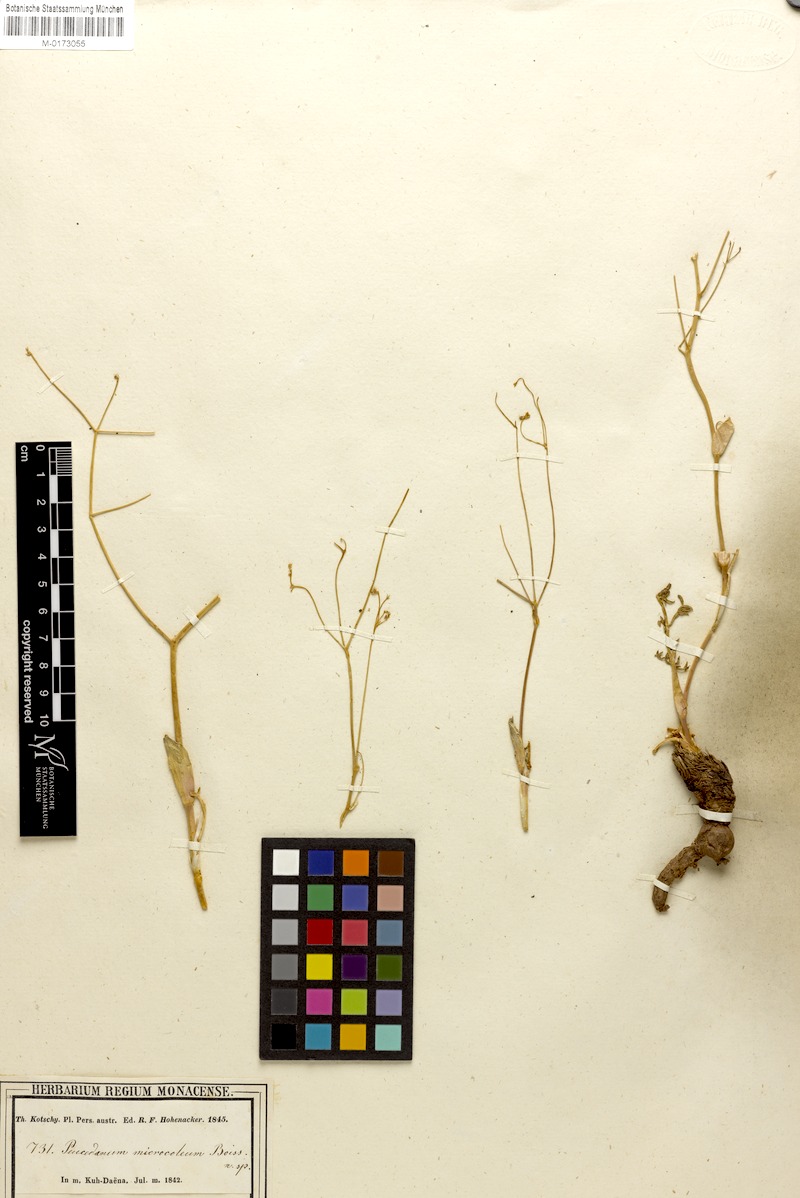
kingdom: Plantae
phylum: Tracheophyta
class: Magnoliopsida
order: Apiales
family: Apiaceae
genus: Ferula
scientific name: Ferula microcolea
